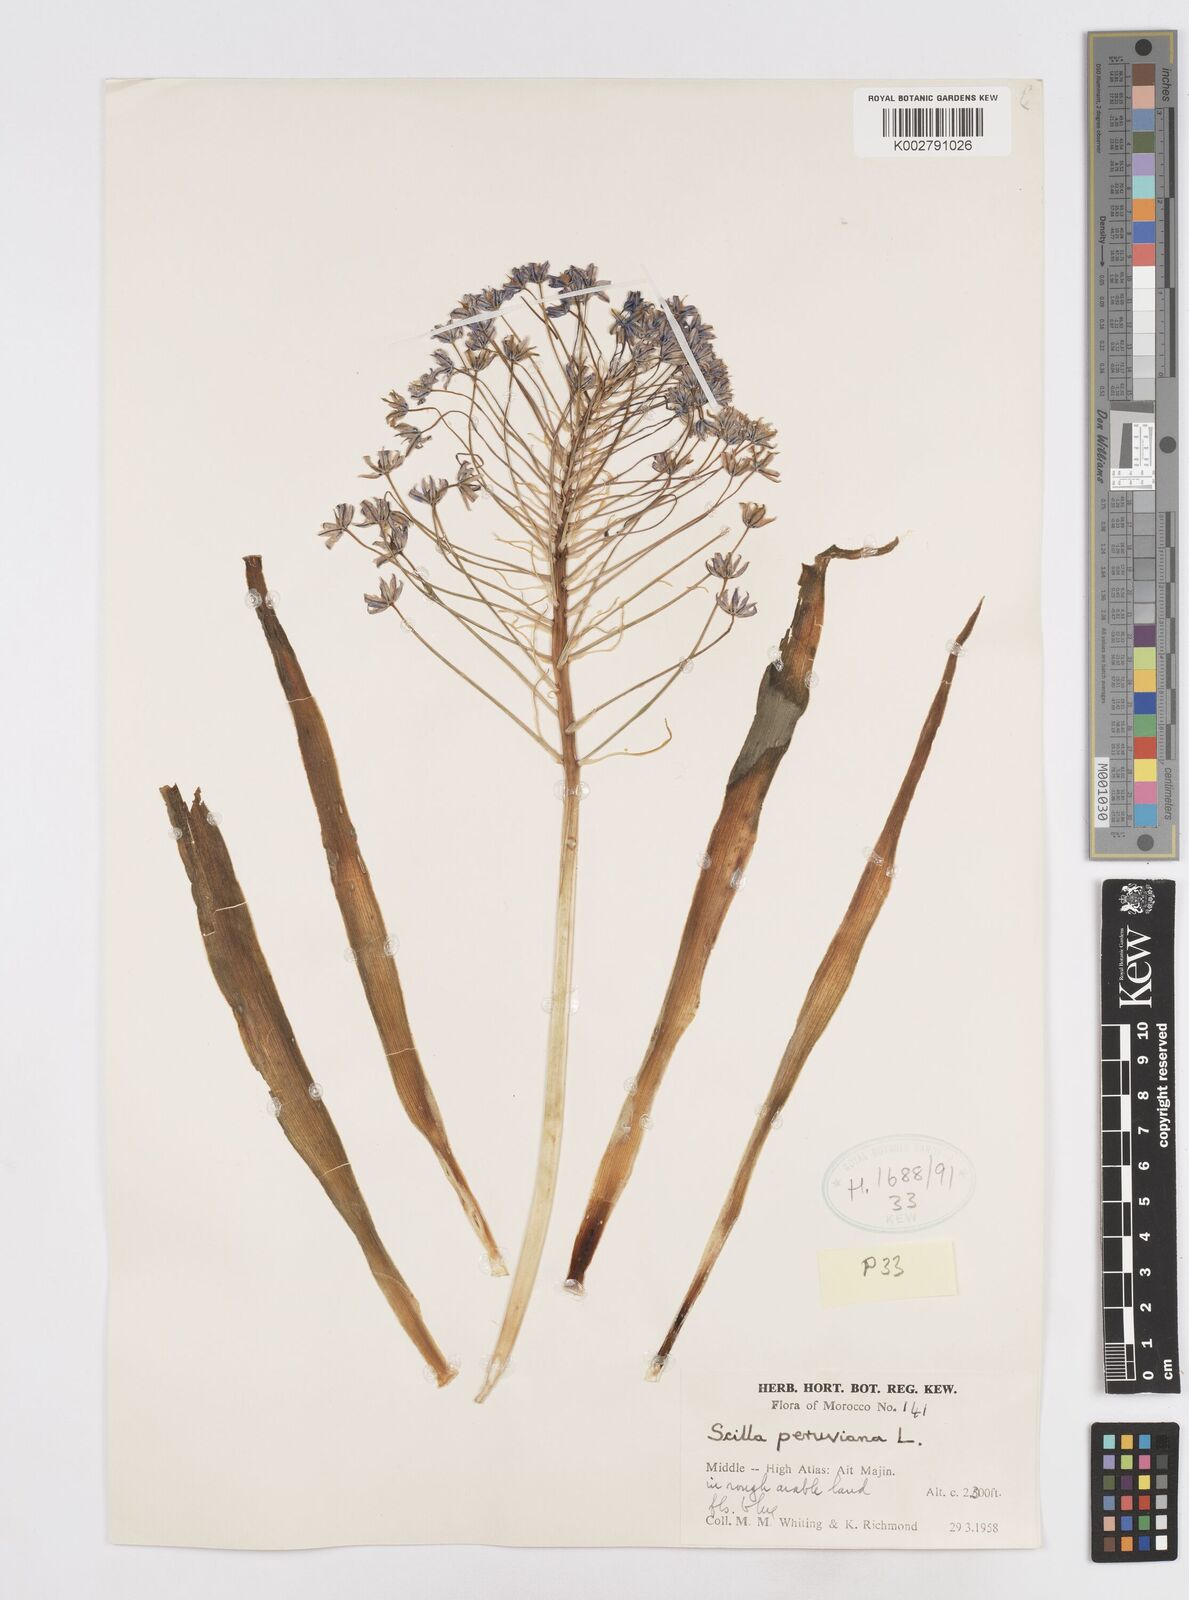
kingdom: Plantae
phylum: Tracheophyta
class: Liliopsida
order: Asparagales
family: Asparagaceae
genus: Scilla
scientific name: Scilla peruviana
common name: Portuguese squill
